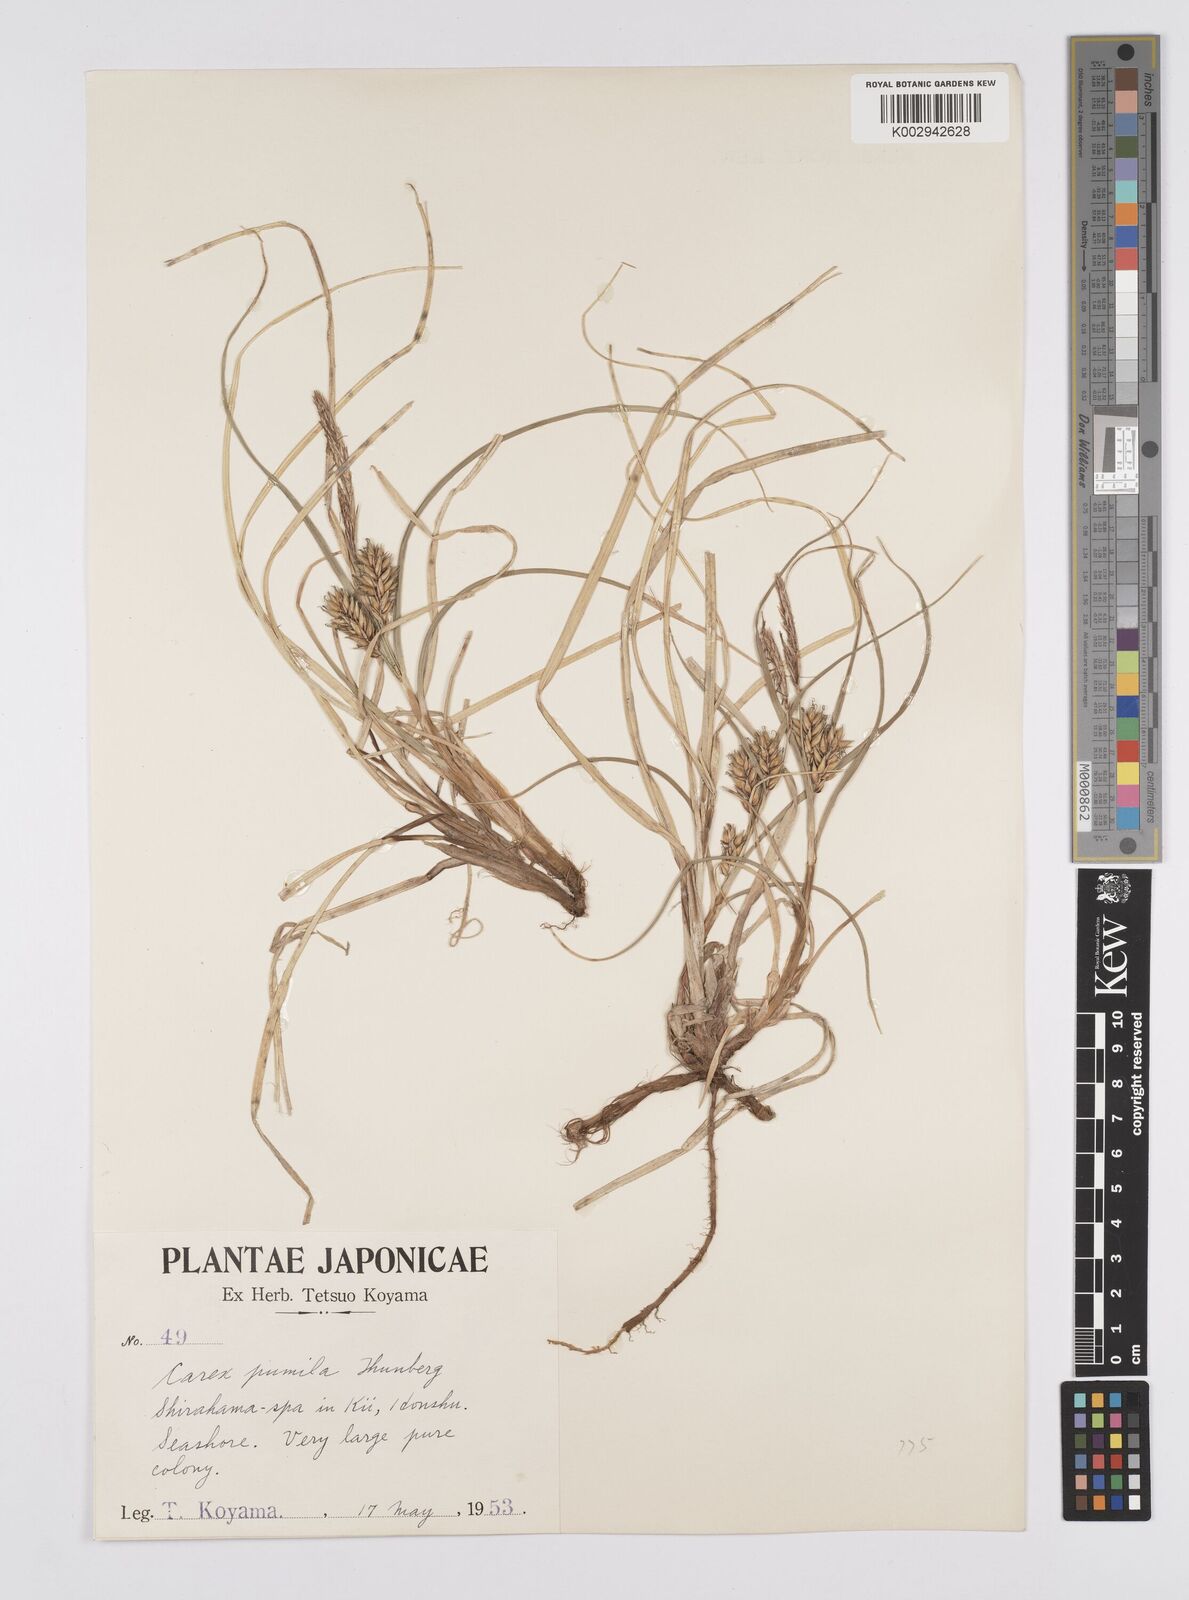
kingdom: Plantae
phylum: Tracheophyta
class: Liliopsida
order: Poales
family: Cyperaceae
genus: Carex
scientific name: Carex pumila
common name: Dwarf sedge
